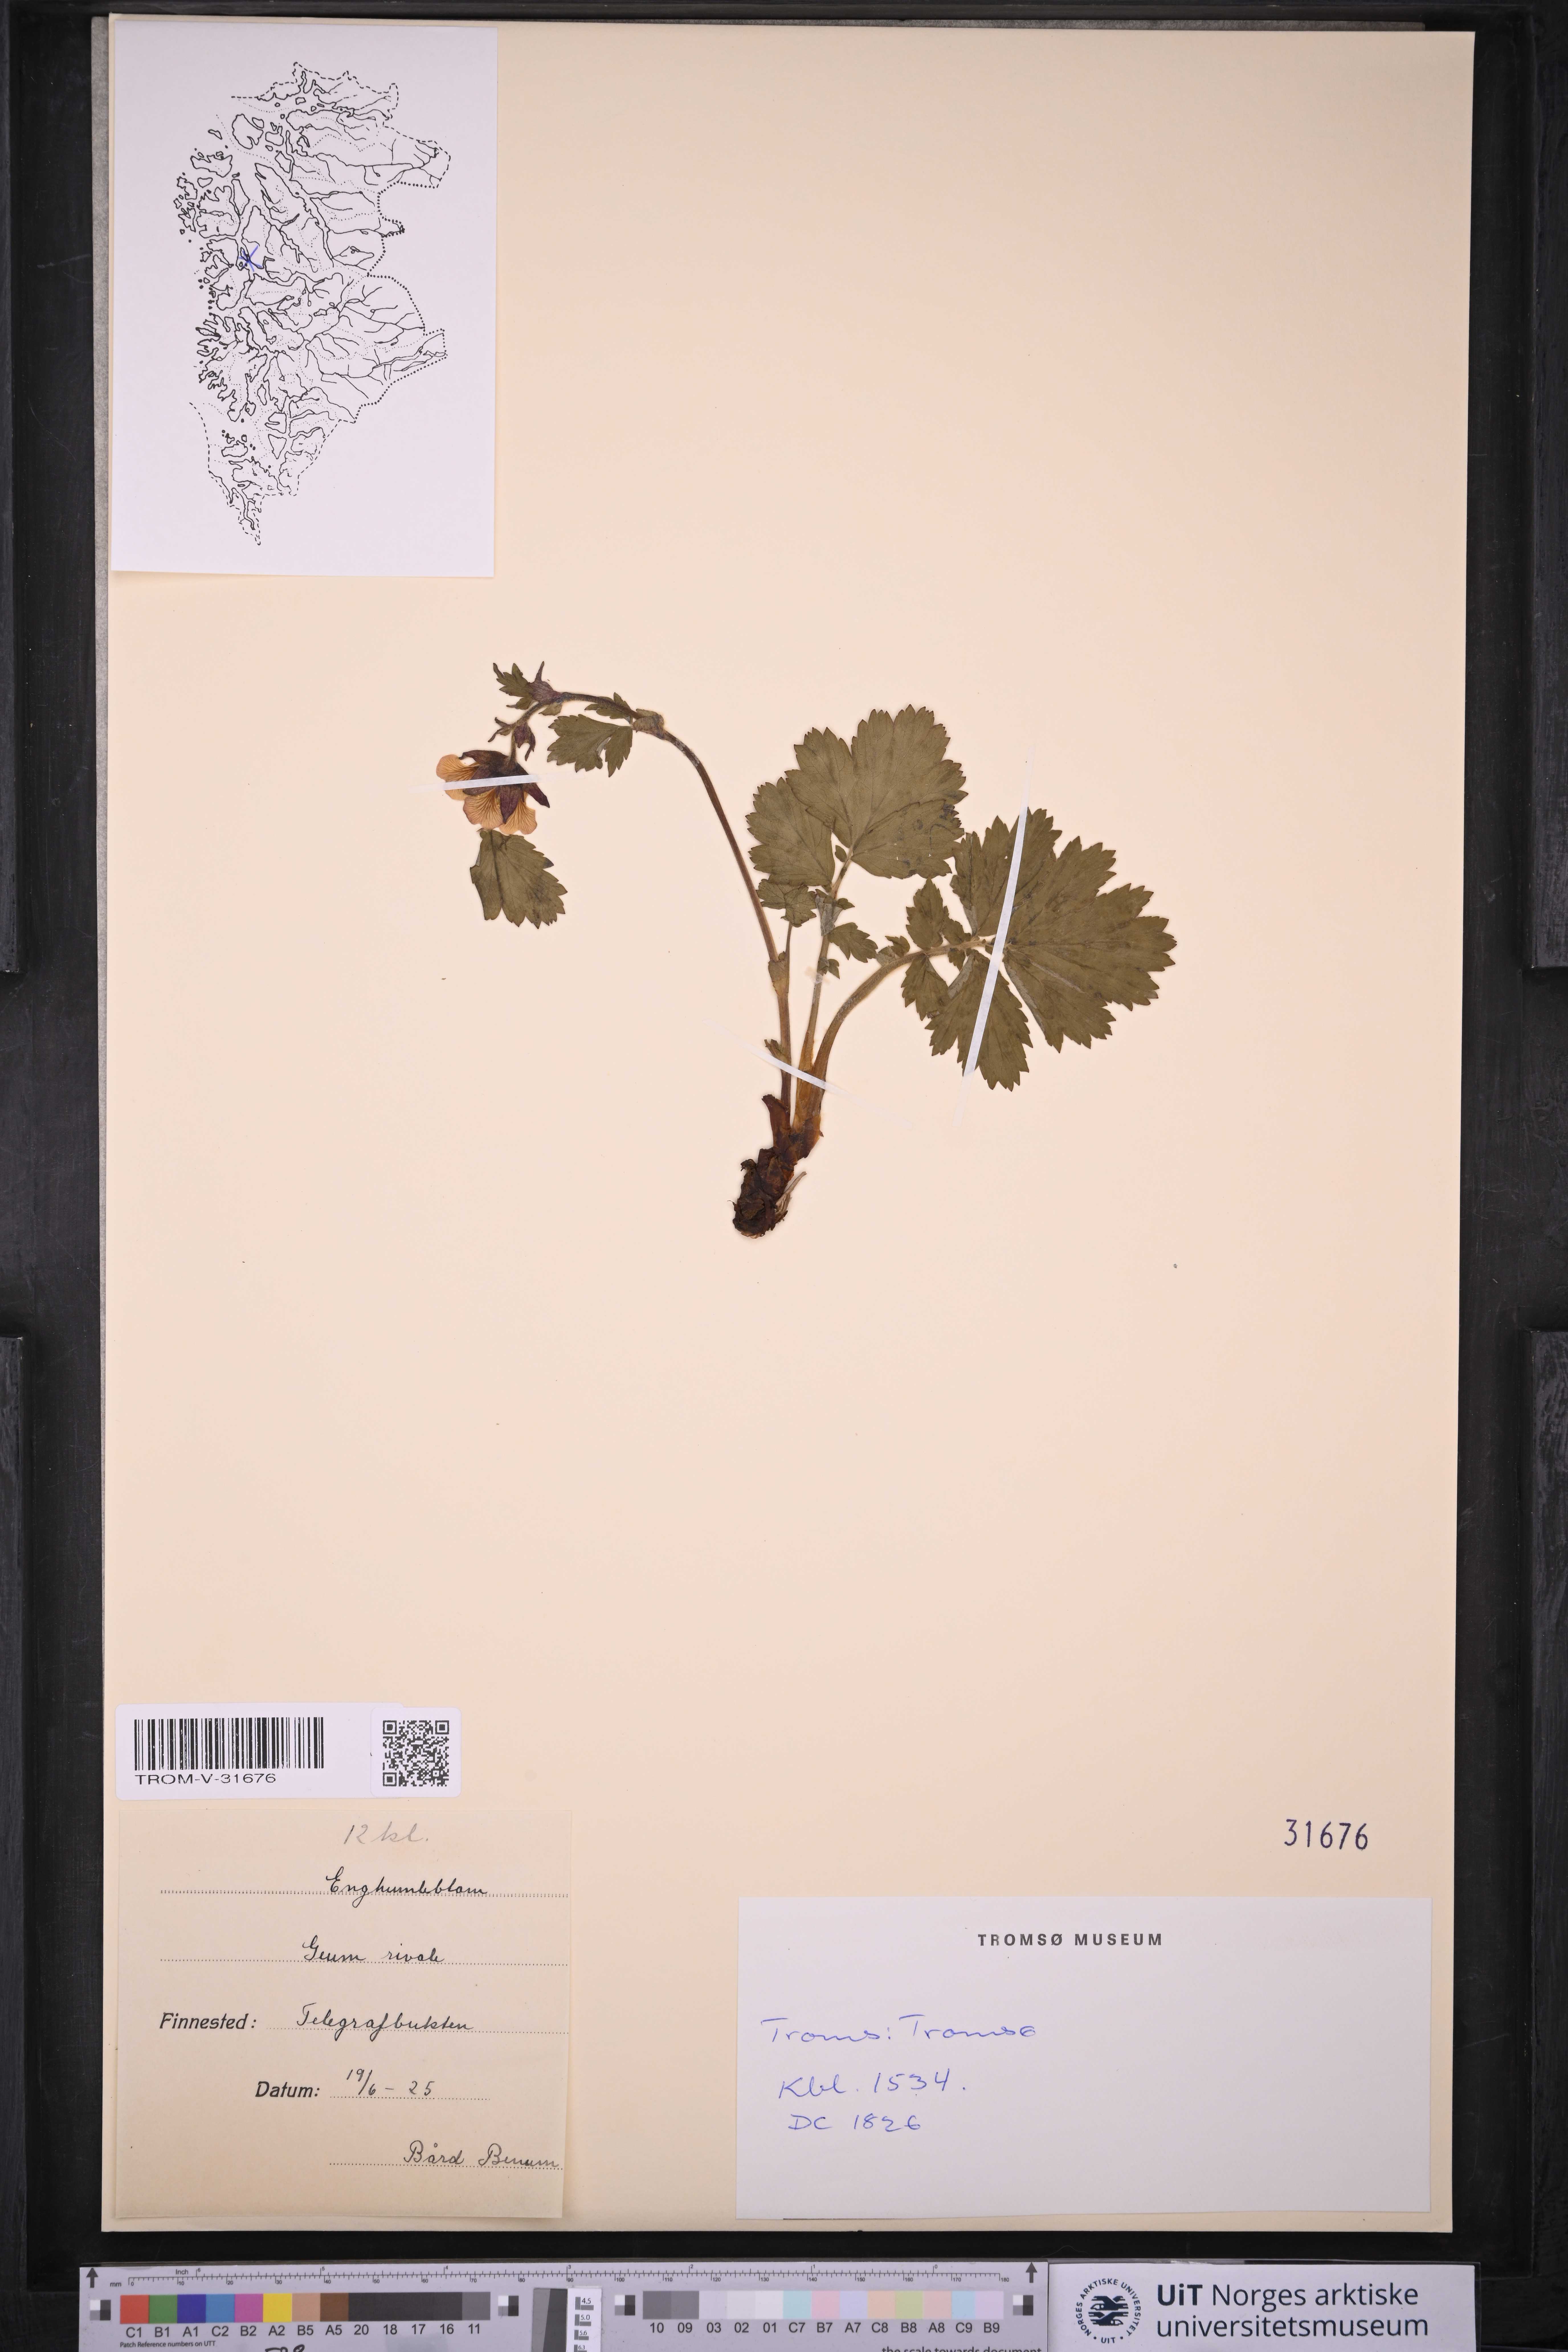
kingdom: Plantae
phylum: Tracheophyta
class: Magnoliopsida
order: Rosales
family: Rosaceae
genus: Geum
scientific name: Geum rivale
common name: Water avens
